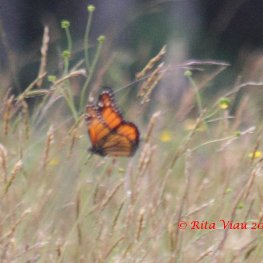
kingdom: Animalia
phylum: Arthropoda
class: Insecta
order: Lepidoptera
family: Nymphalidae
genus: Danaus
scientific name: Danaus plexippus
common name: Monarch
